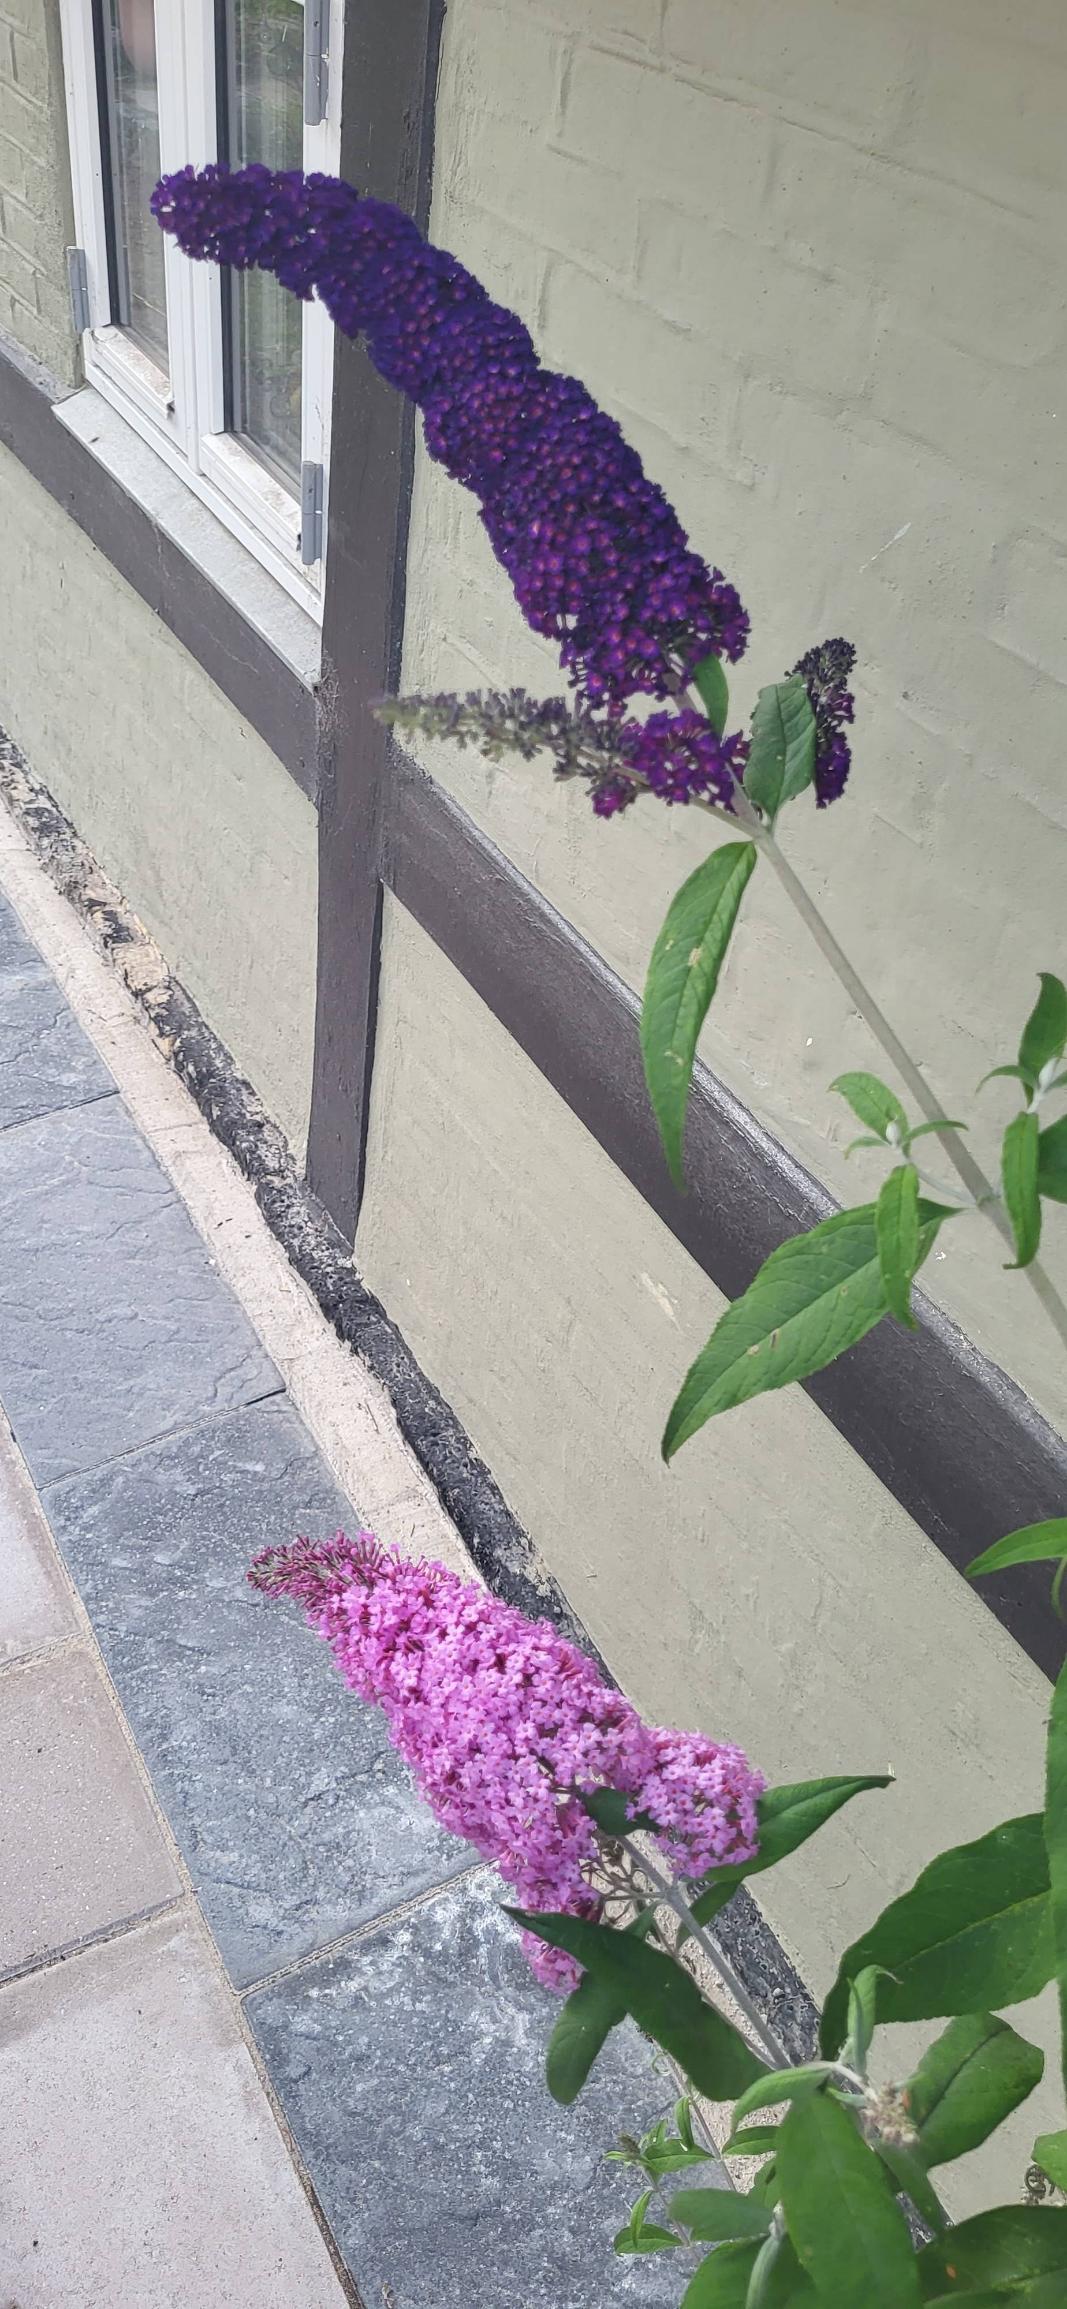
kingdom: Plantae
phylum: Tracheophyta
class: Magnoliopsida
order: Lamiales
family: Scrophulariaceae
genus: Buddleja
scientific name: Buddleja davidii
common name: Sommerfuglebusk
